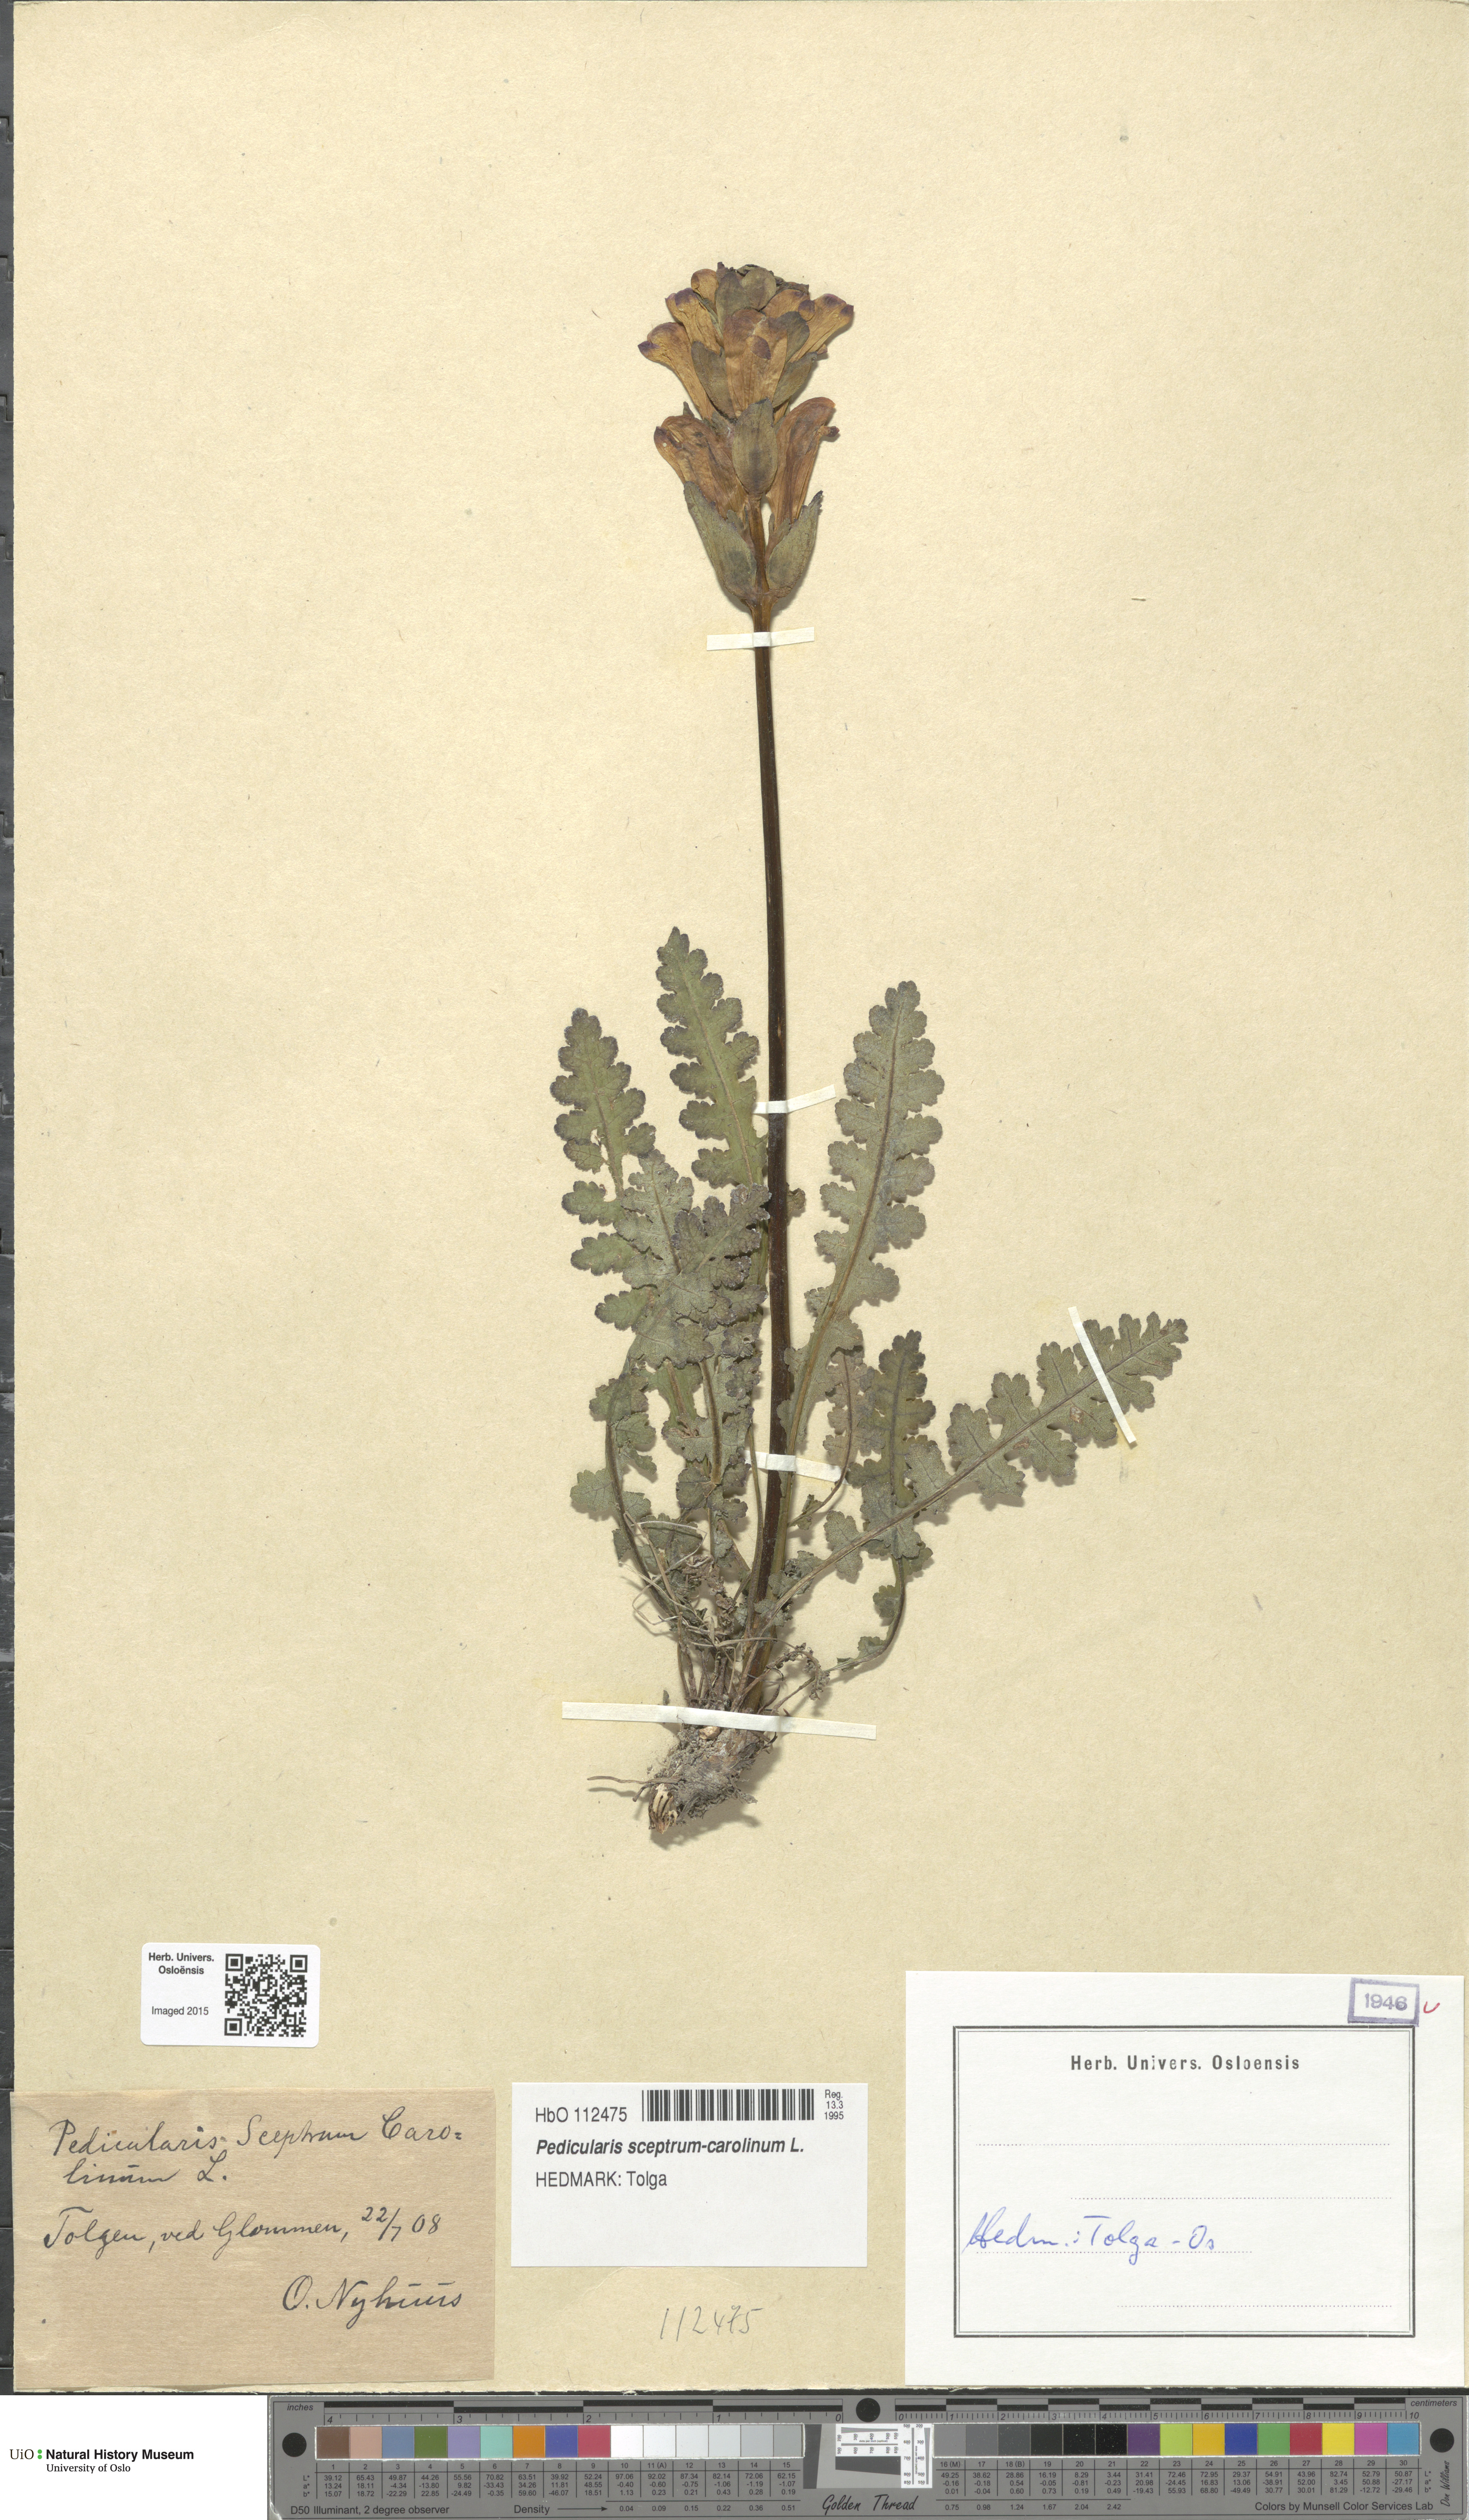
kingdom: Plantae
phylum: Tracheophyta
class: Magnoliopsida
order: Lamiales
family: Orobanchaceae
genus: Pedicularis
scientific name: Pedicularis sceptrum-carolinum
